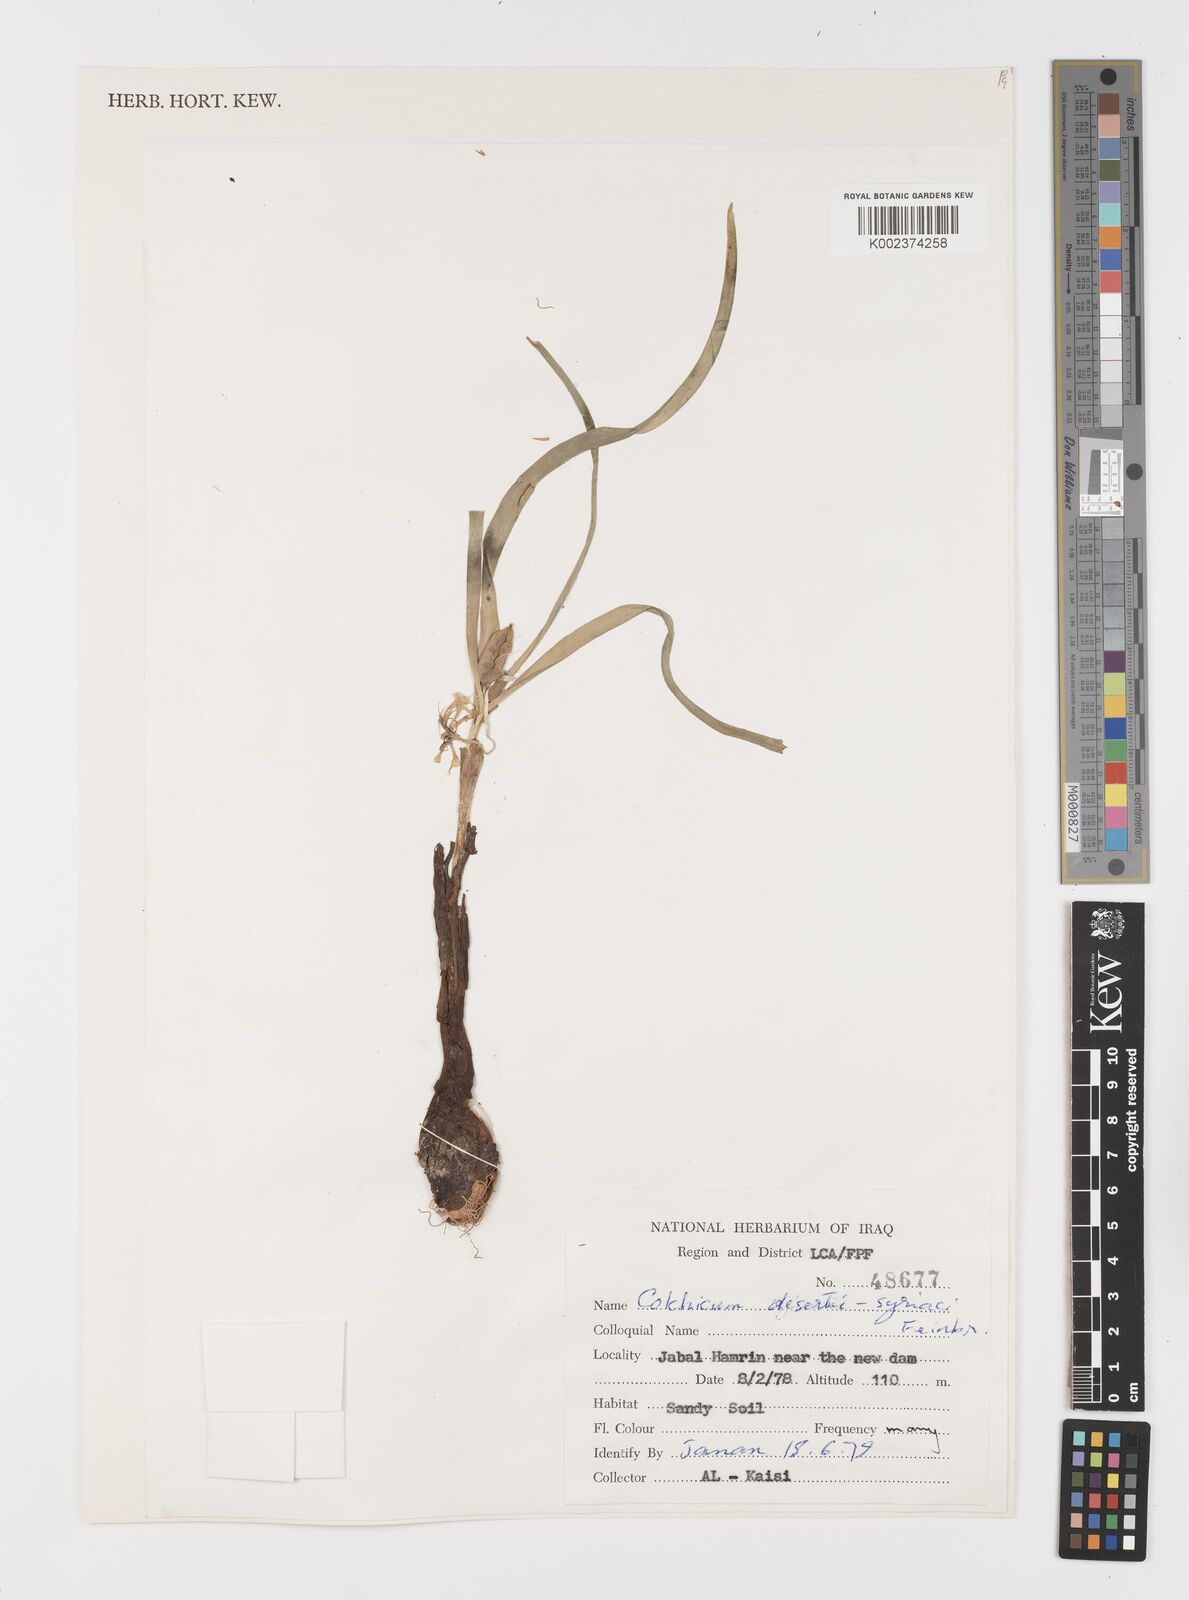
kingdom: Plantae
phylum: Tracheophyta
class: Liliopsida
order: Liliales
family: Colchicaceae
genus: Colchicum
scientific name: Colchicum schimperi
